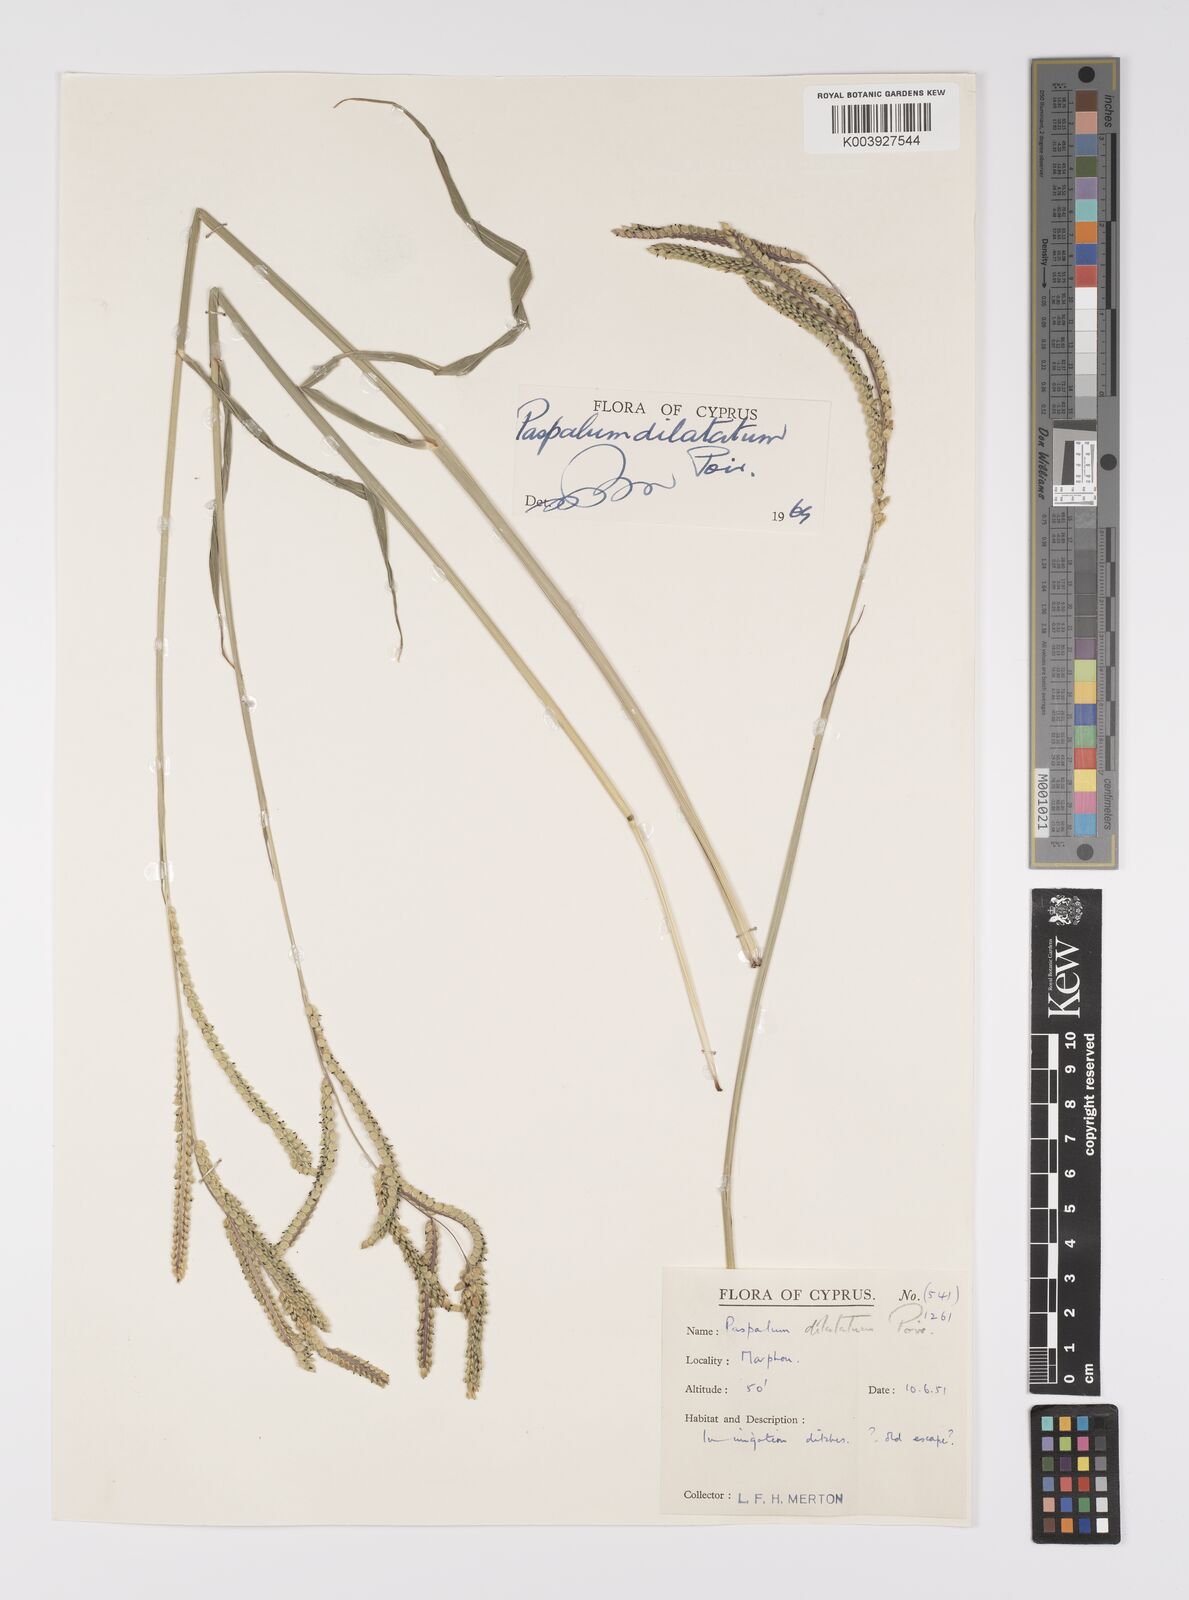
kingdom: Plantae
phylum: Tracheophyta
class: Liliopsida
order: Poales
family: Poaceae
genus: Paspalum
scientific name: Paspalum dilatatum
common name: Dallisgrass
